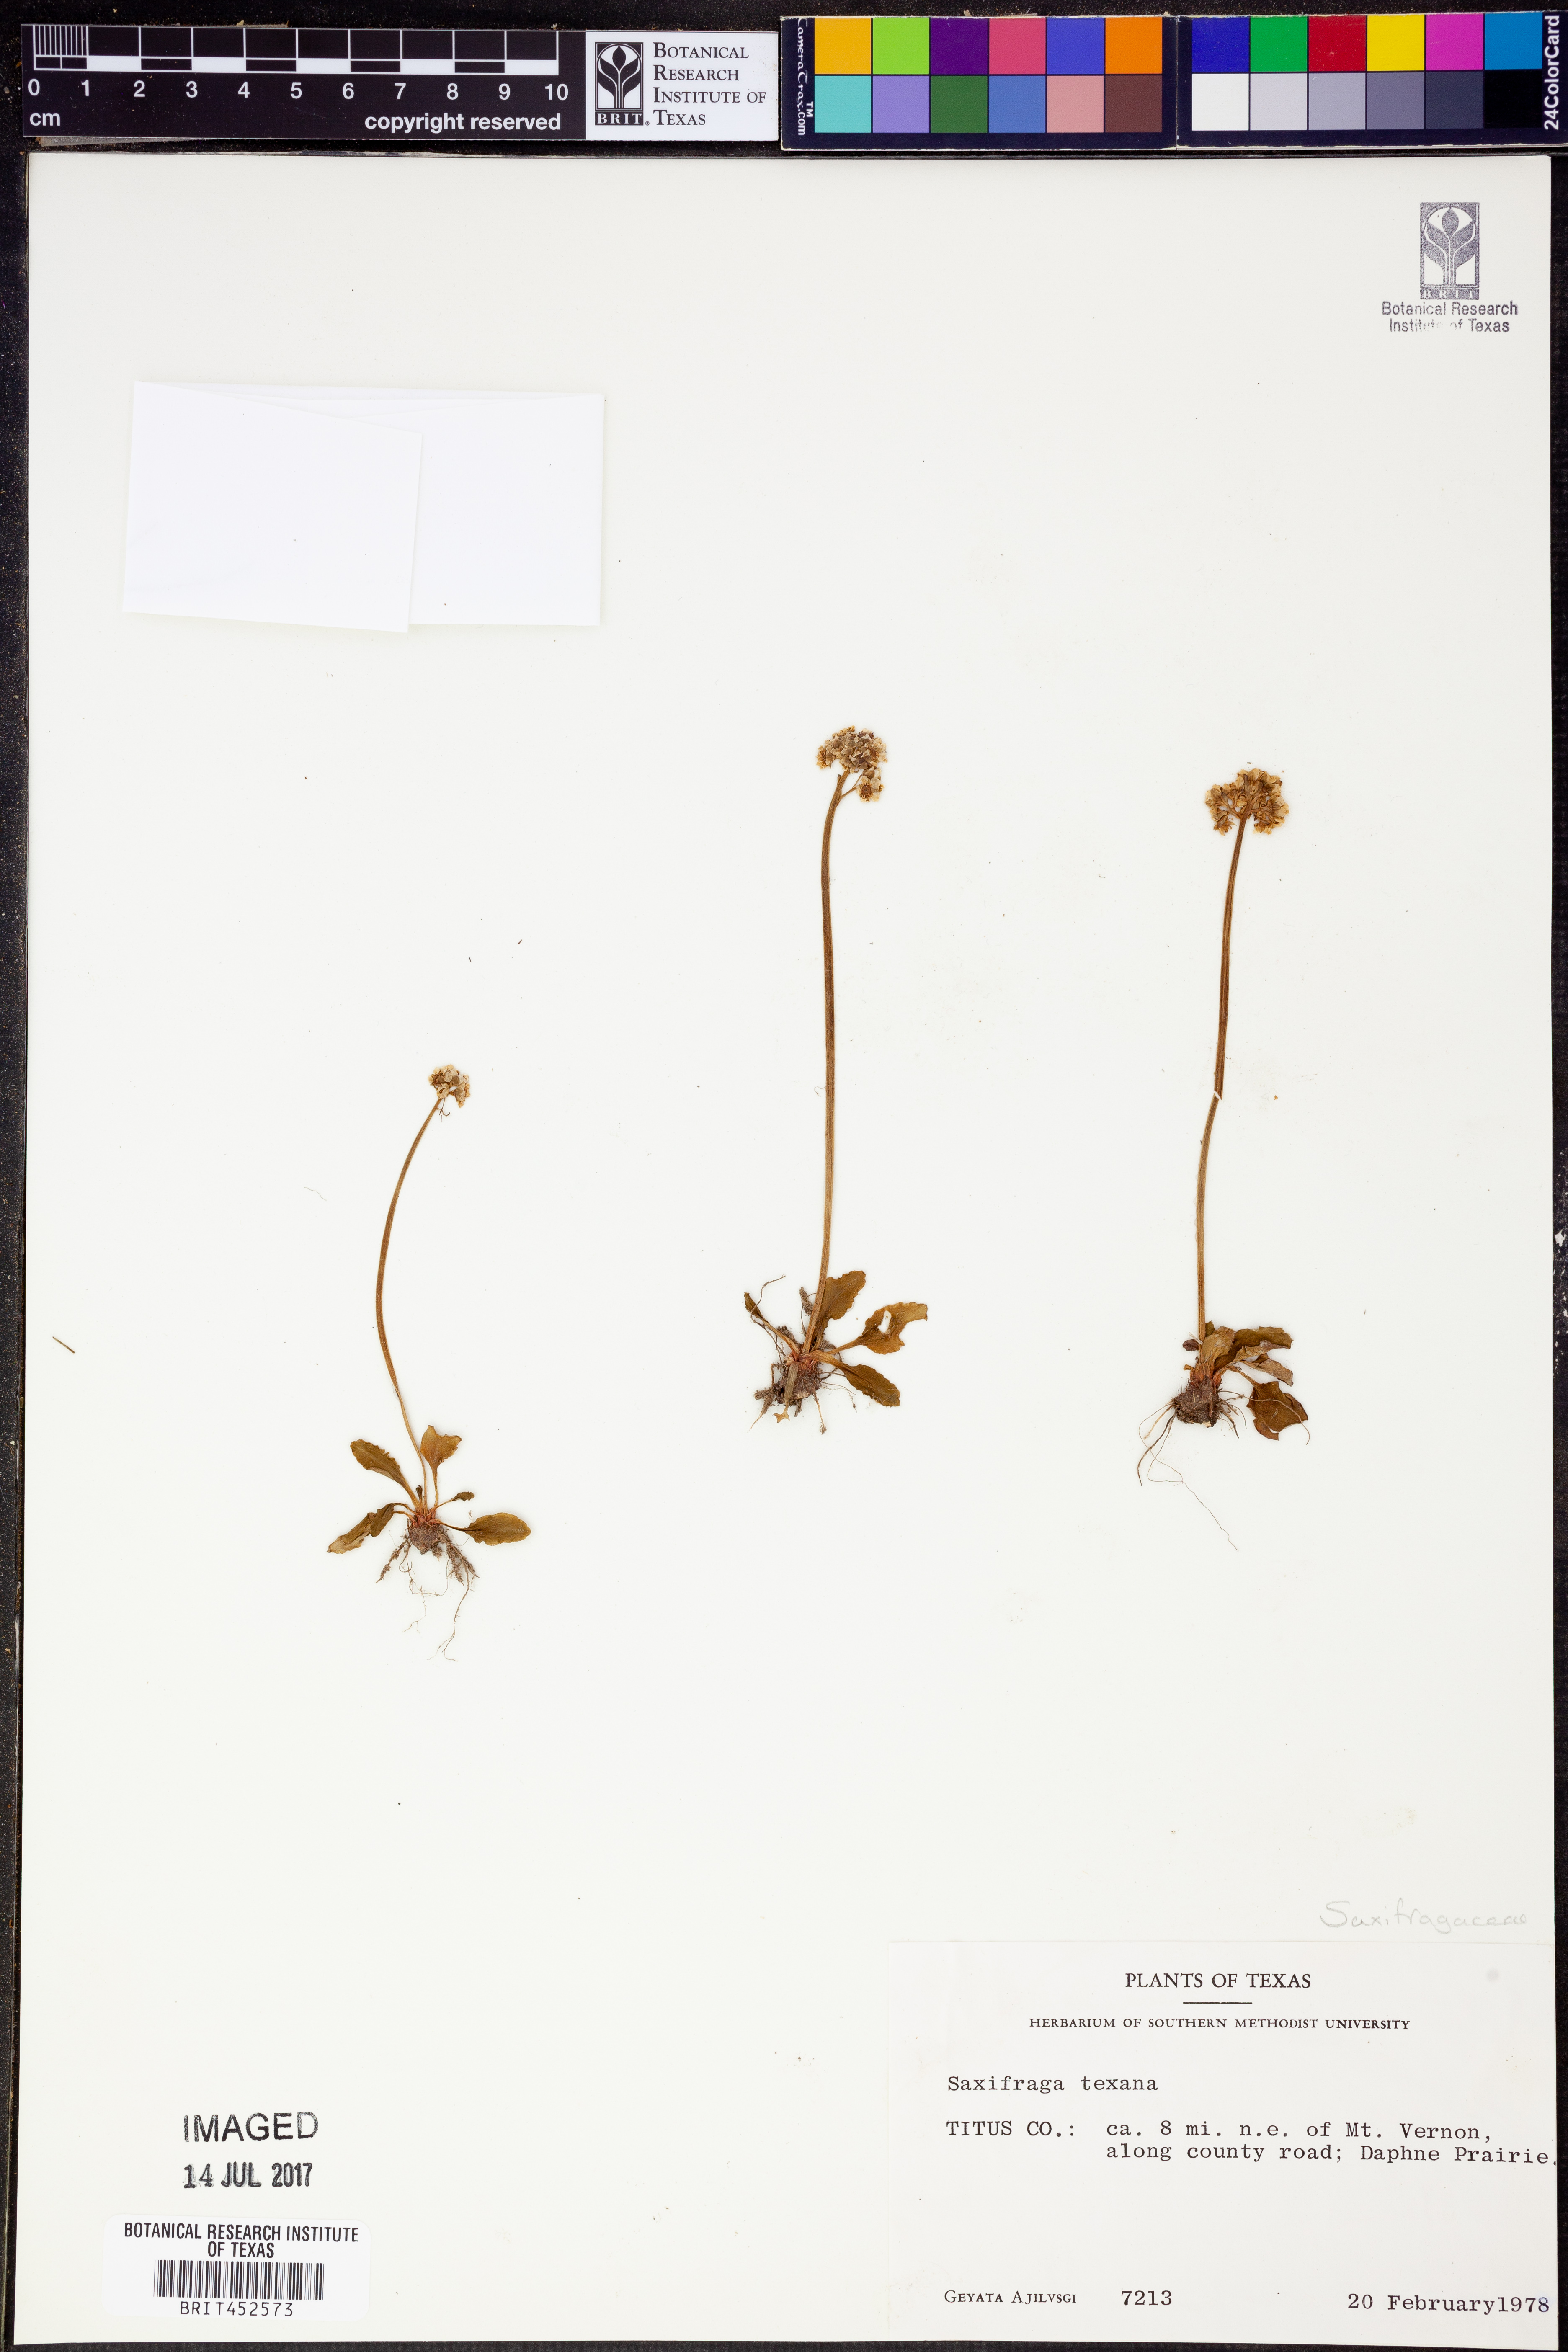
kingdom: Plantae
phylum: Tracheophyta
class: Magnoliopsida
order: Saxifragales
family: Saxifragaceae
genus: Micranthes
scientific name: Micranthes texana
